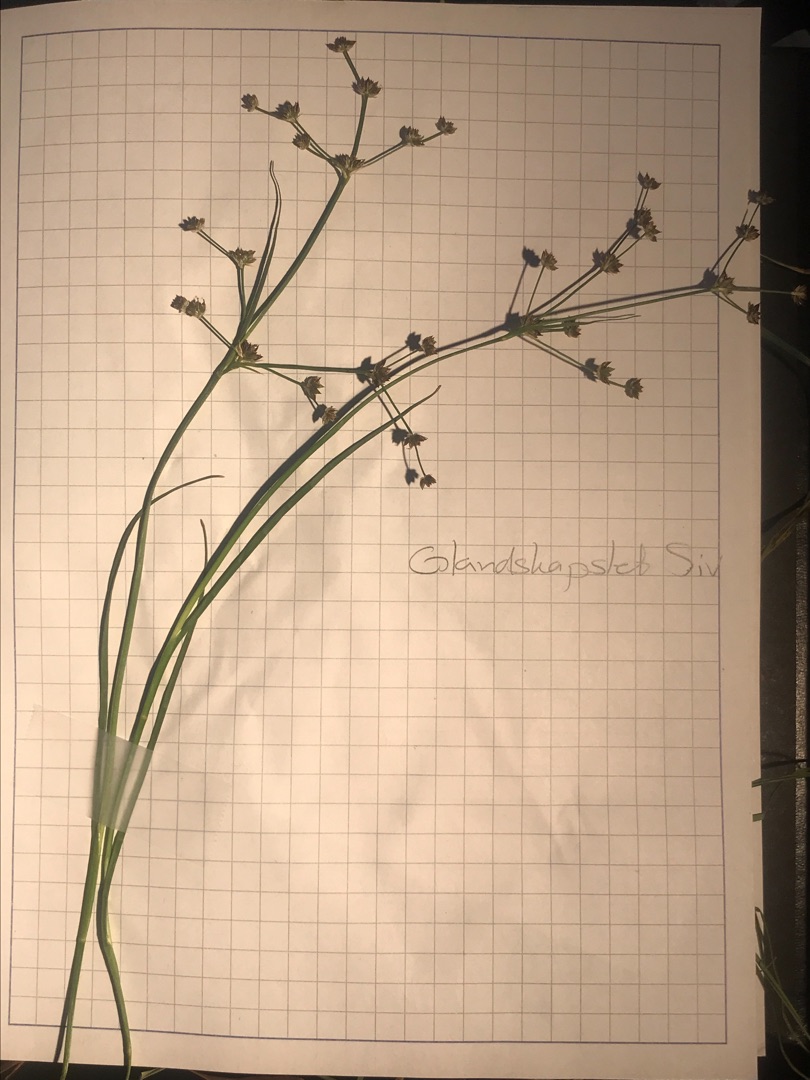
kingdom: Plantae
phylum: Tracheophyta
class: Liliopsida
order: Poales
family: Juncaceae
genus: Juncus
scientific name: Juncus articulatus
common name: Glanskapslet siv
